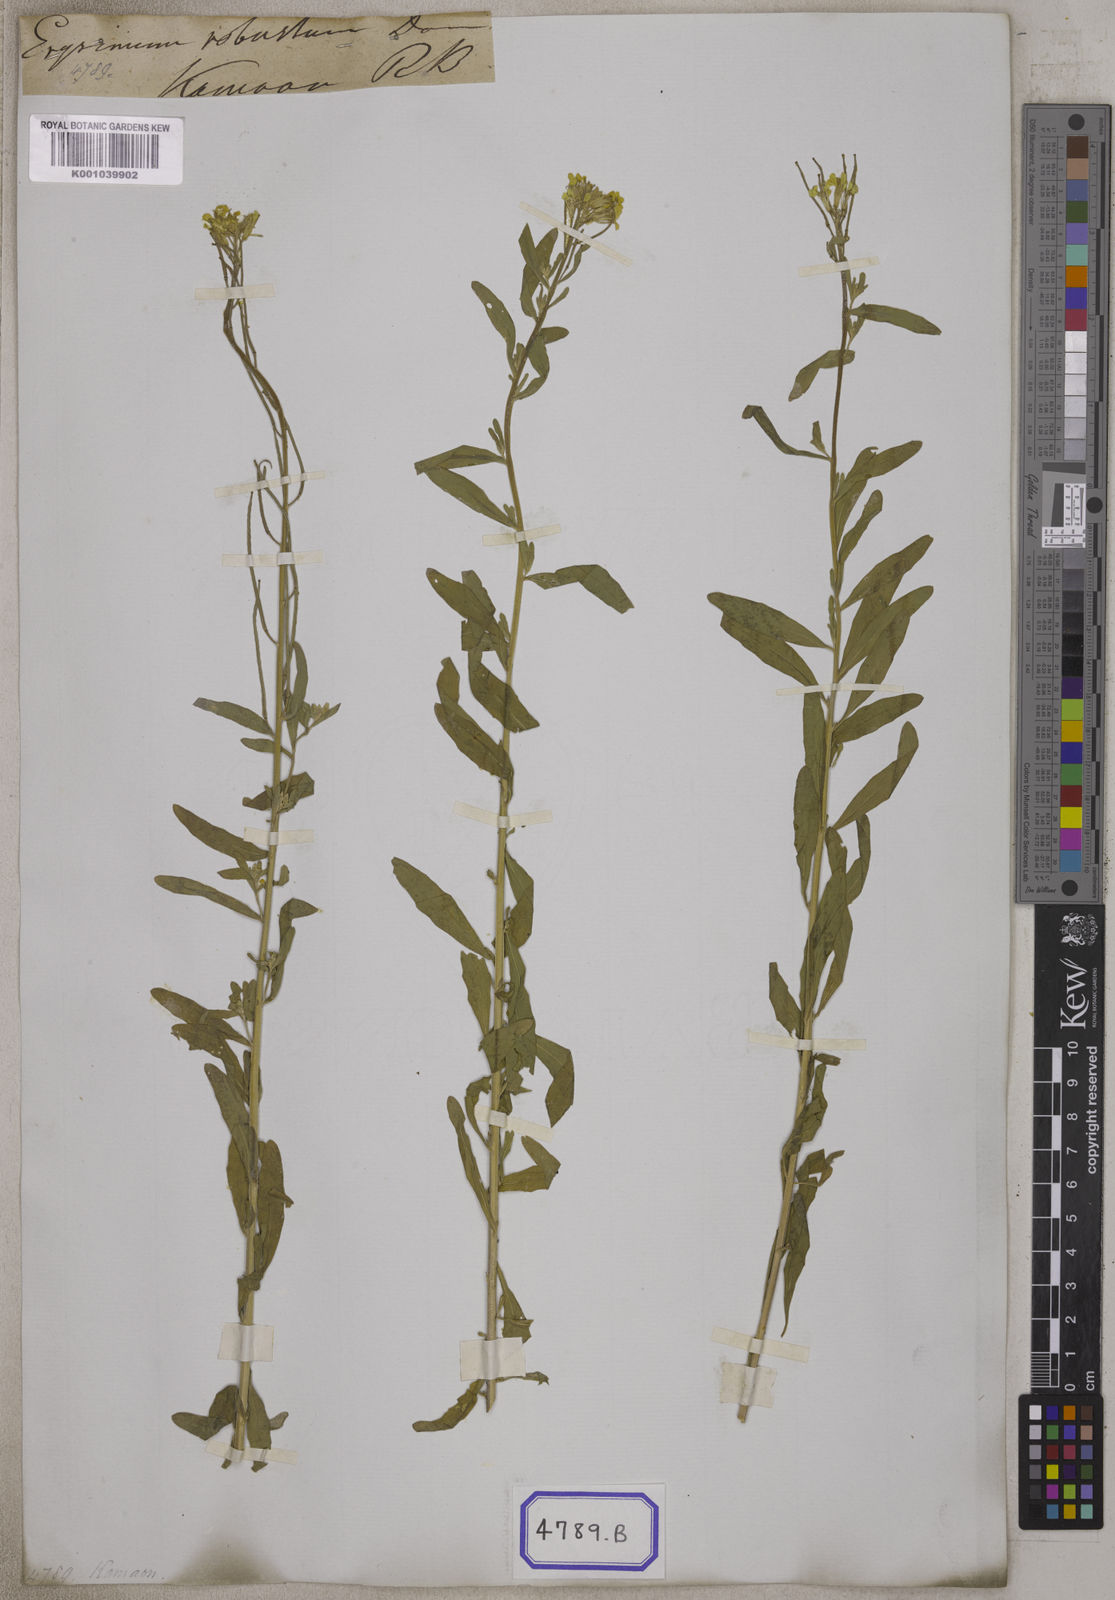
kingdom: Plantae
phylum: Tracheophyta
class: Magnoliopsida
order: Brassicales
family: Brassicaceae
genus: Erysimum
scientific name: Erysimum hieraciifolium
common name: European wallflower
